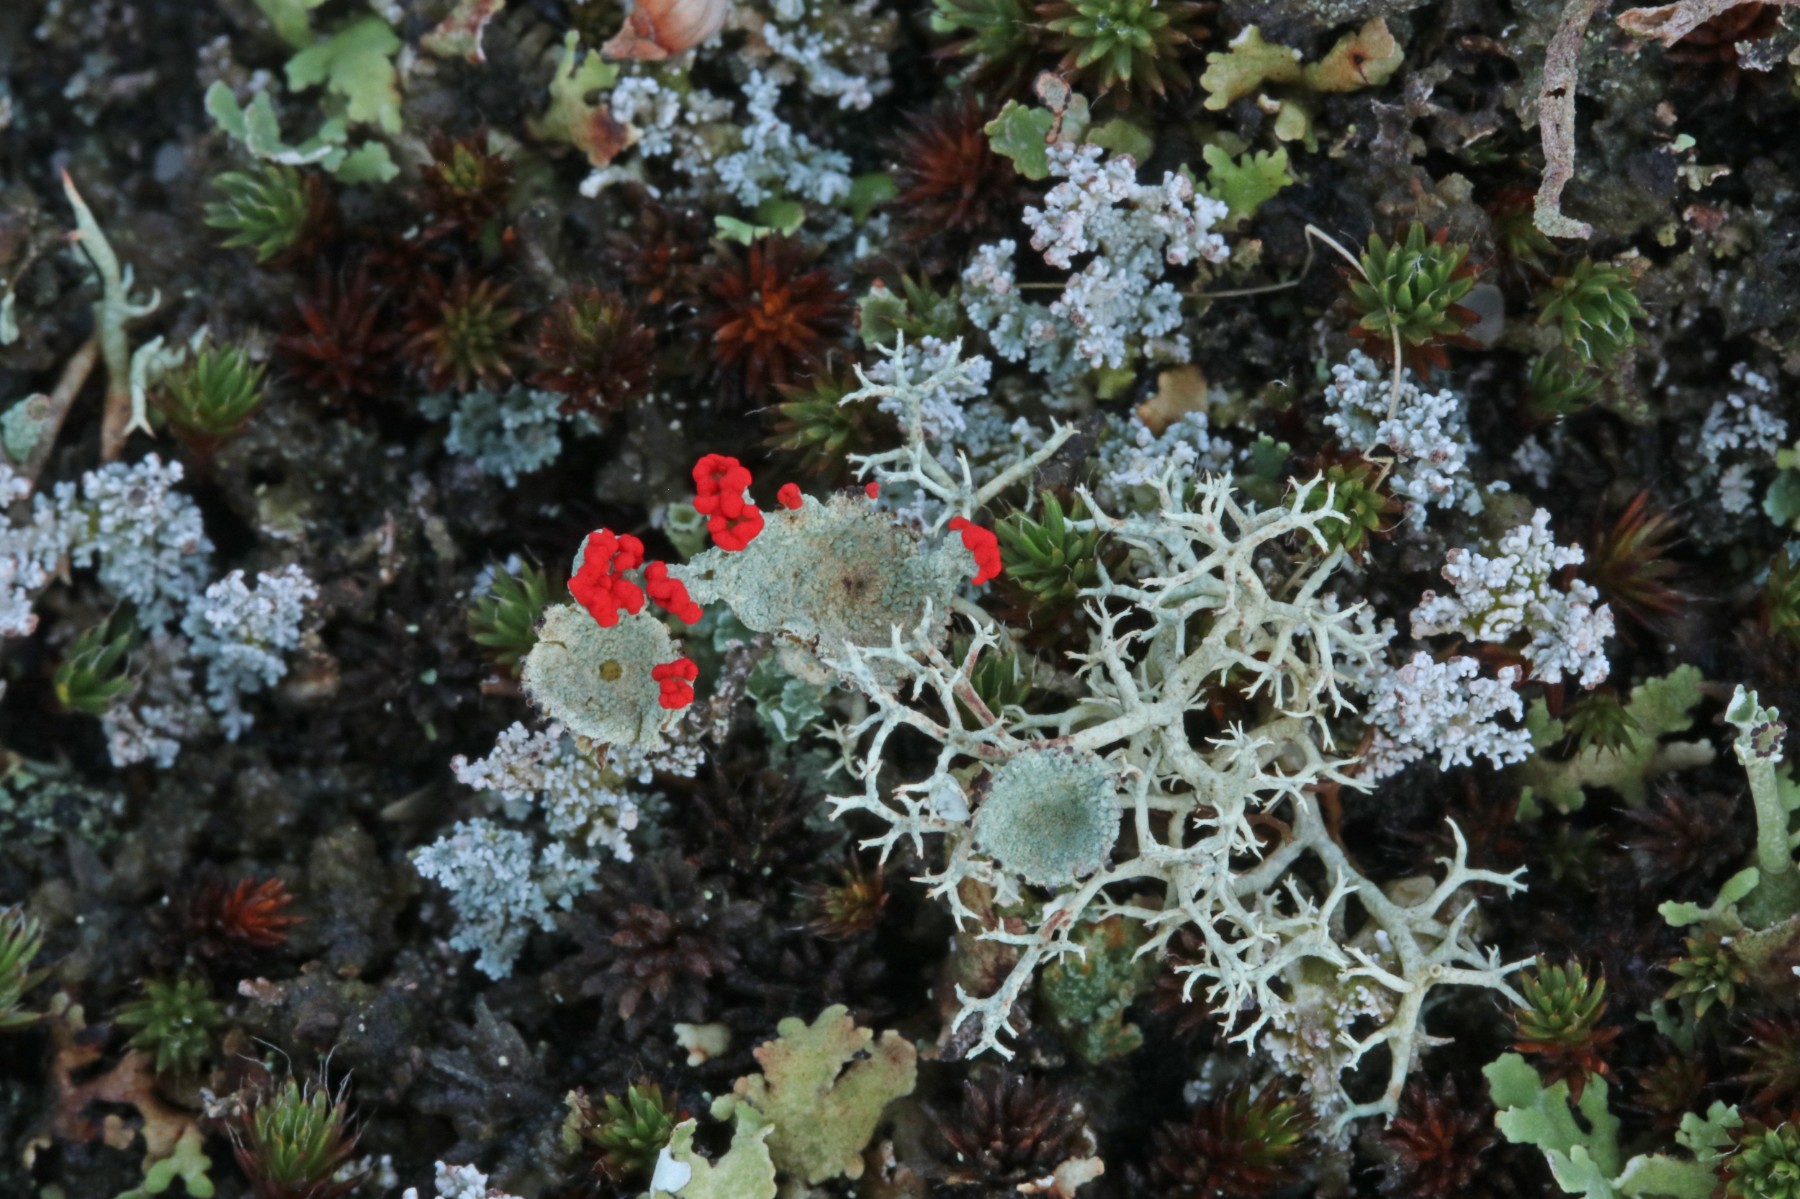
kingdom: Fungi
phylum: Ascomycota
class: Lecanoromycetes
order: Lecanorales
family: Cladoniaceae
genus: Cladonia
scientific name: Cladonia diversa
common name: rød bægerlav
